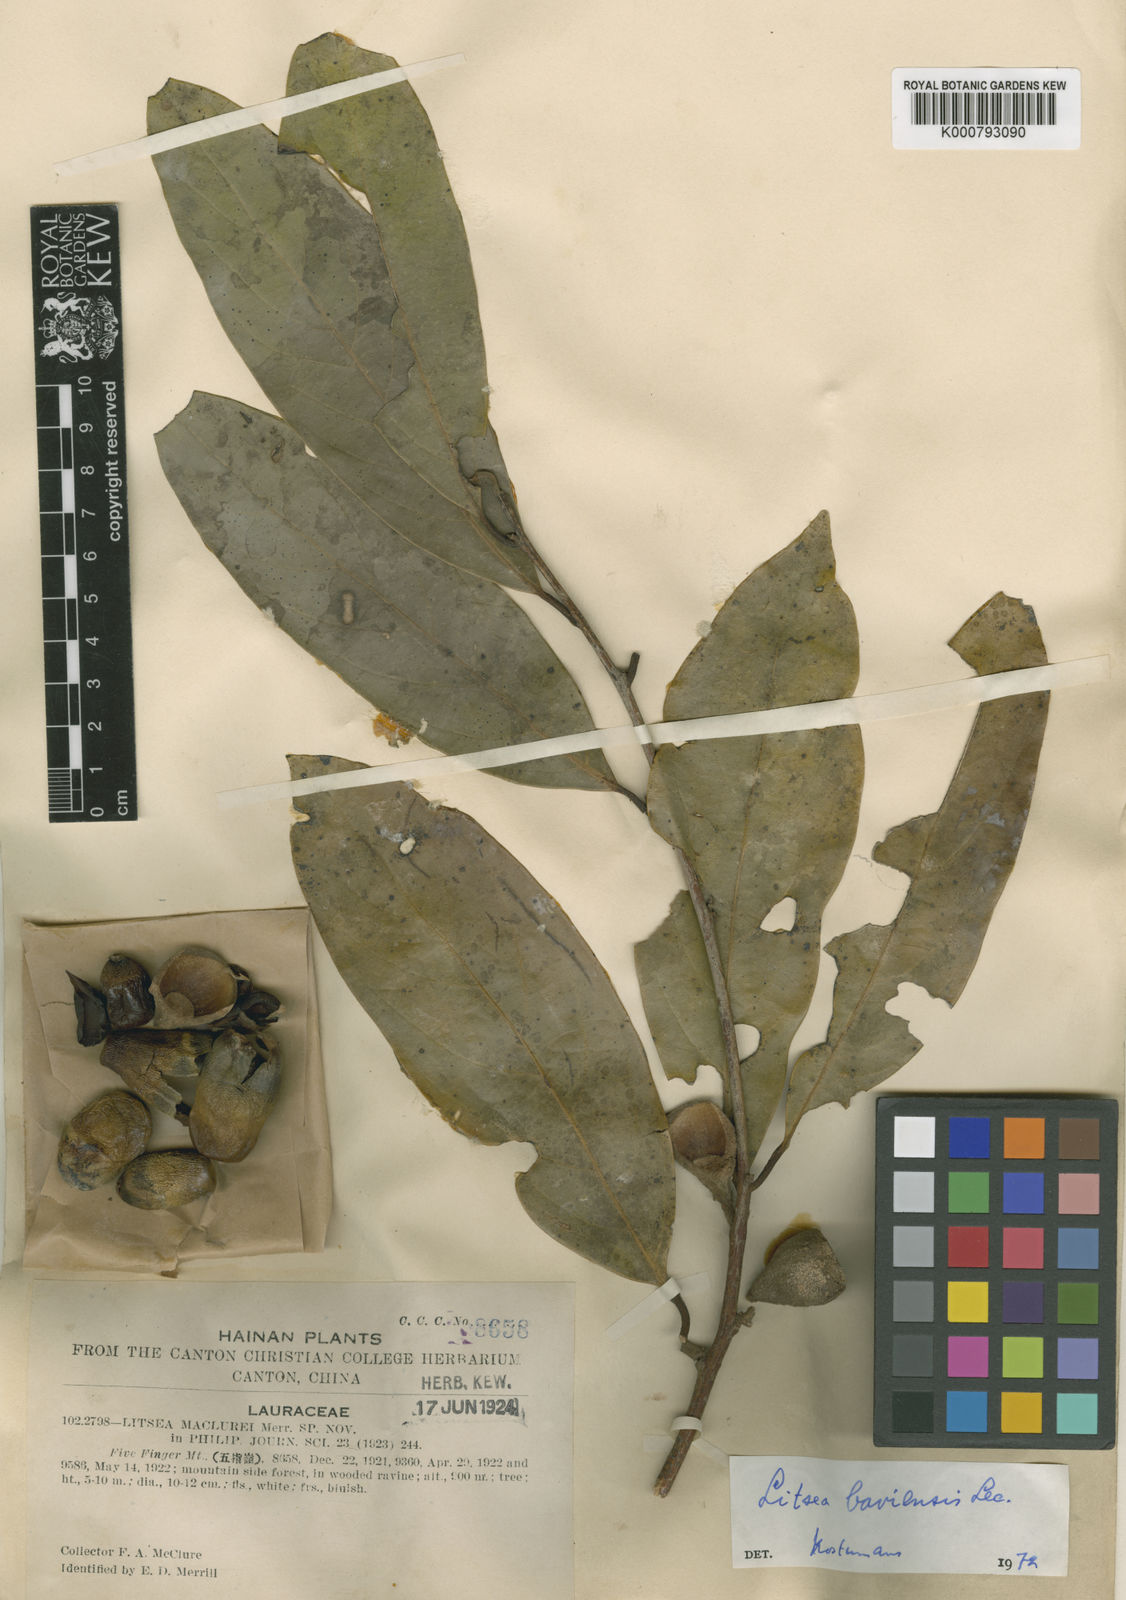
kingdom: Plantae
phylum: Tracheophyta
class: Magnoliopsida
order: Laurales
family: Lauraceae
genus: Litsea
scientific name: Litsea baviensis
